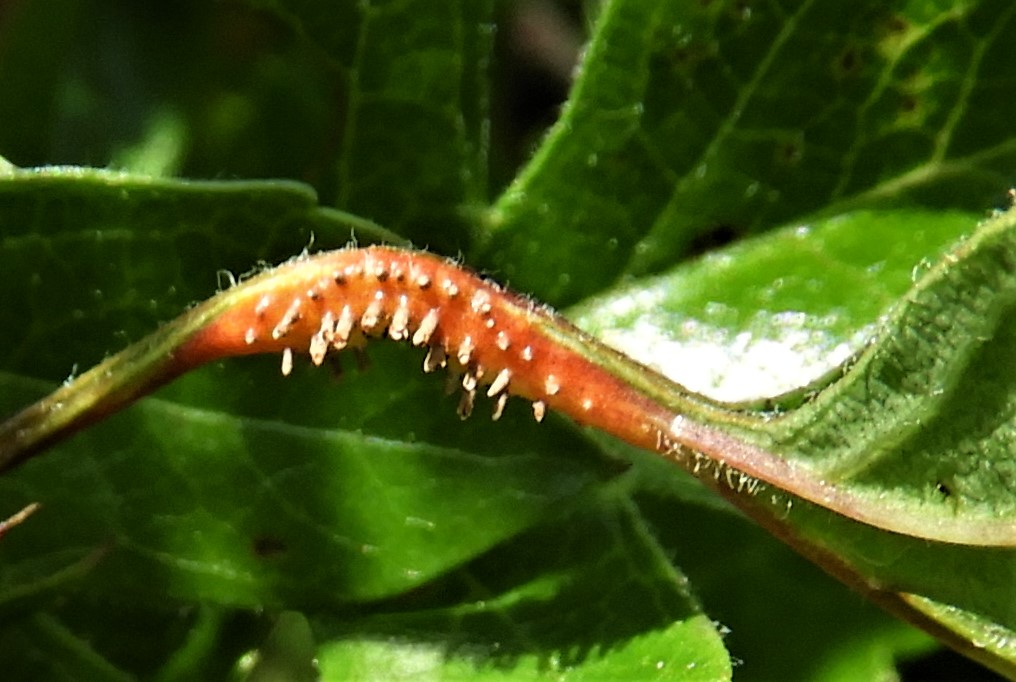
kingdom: Fungi
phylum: Basidiomycota
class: Pucciniomycetes
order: Pucciniales
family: Gymnosporangiaceae
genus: Gymnosporangium
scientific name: Gymnosporangium
